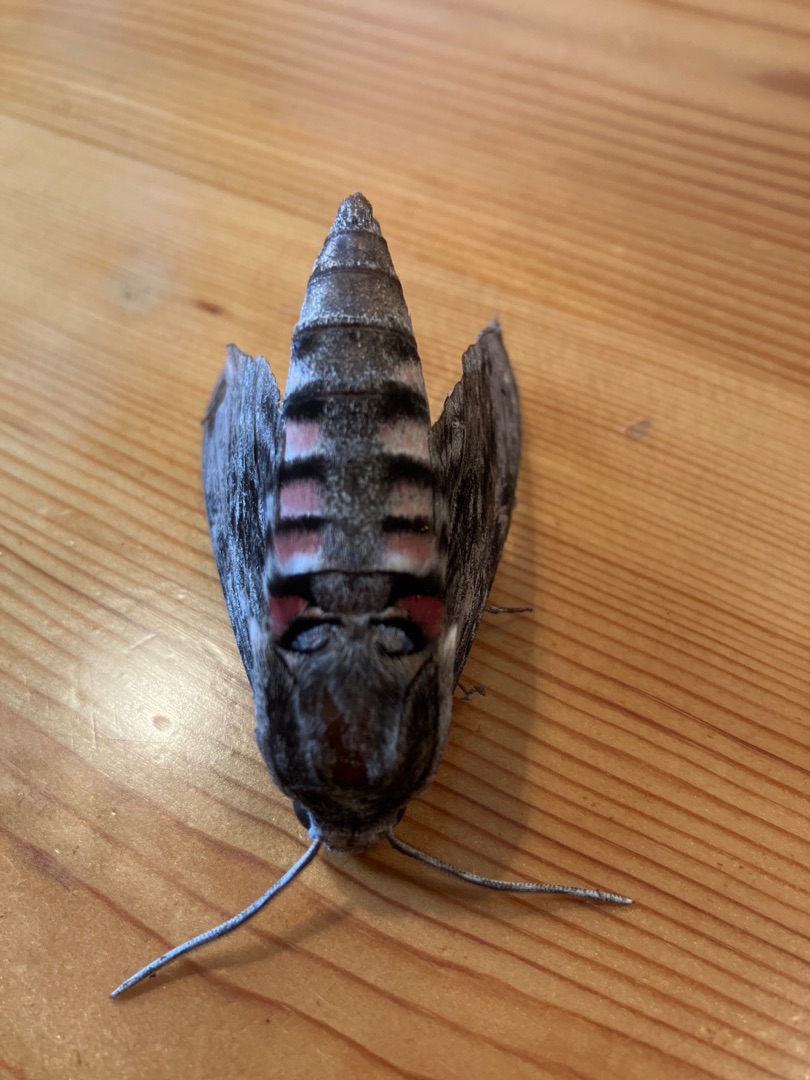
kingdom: Animalia
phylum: Arthropoda
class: Insecta
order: Lepidoptera
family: Sphingidae
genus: Agrius
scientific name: Agrius convolvuli
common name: Snerlesværmer
